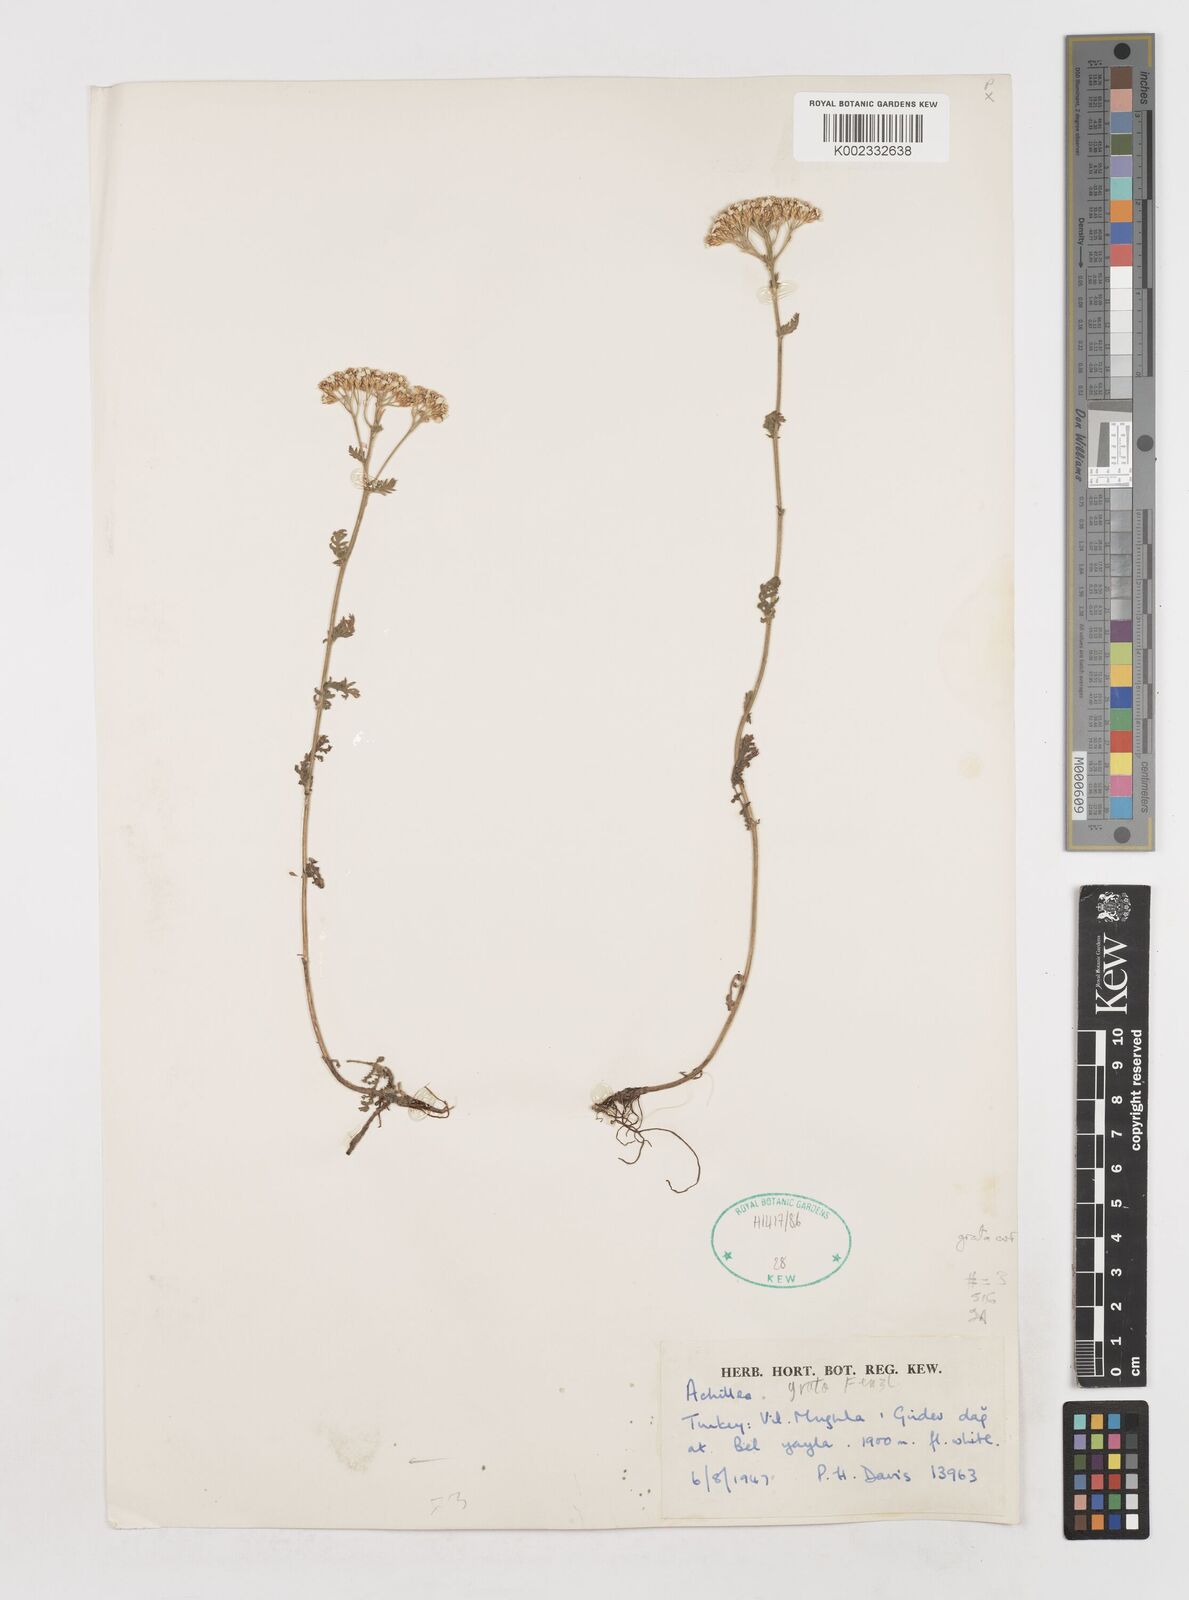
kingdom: Plantae
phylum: Tracheophyta
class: Magnoliopsida
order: Asterales
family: Asteraceae
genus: Achillea
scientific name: Achillea kotschyi
